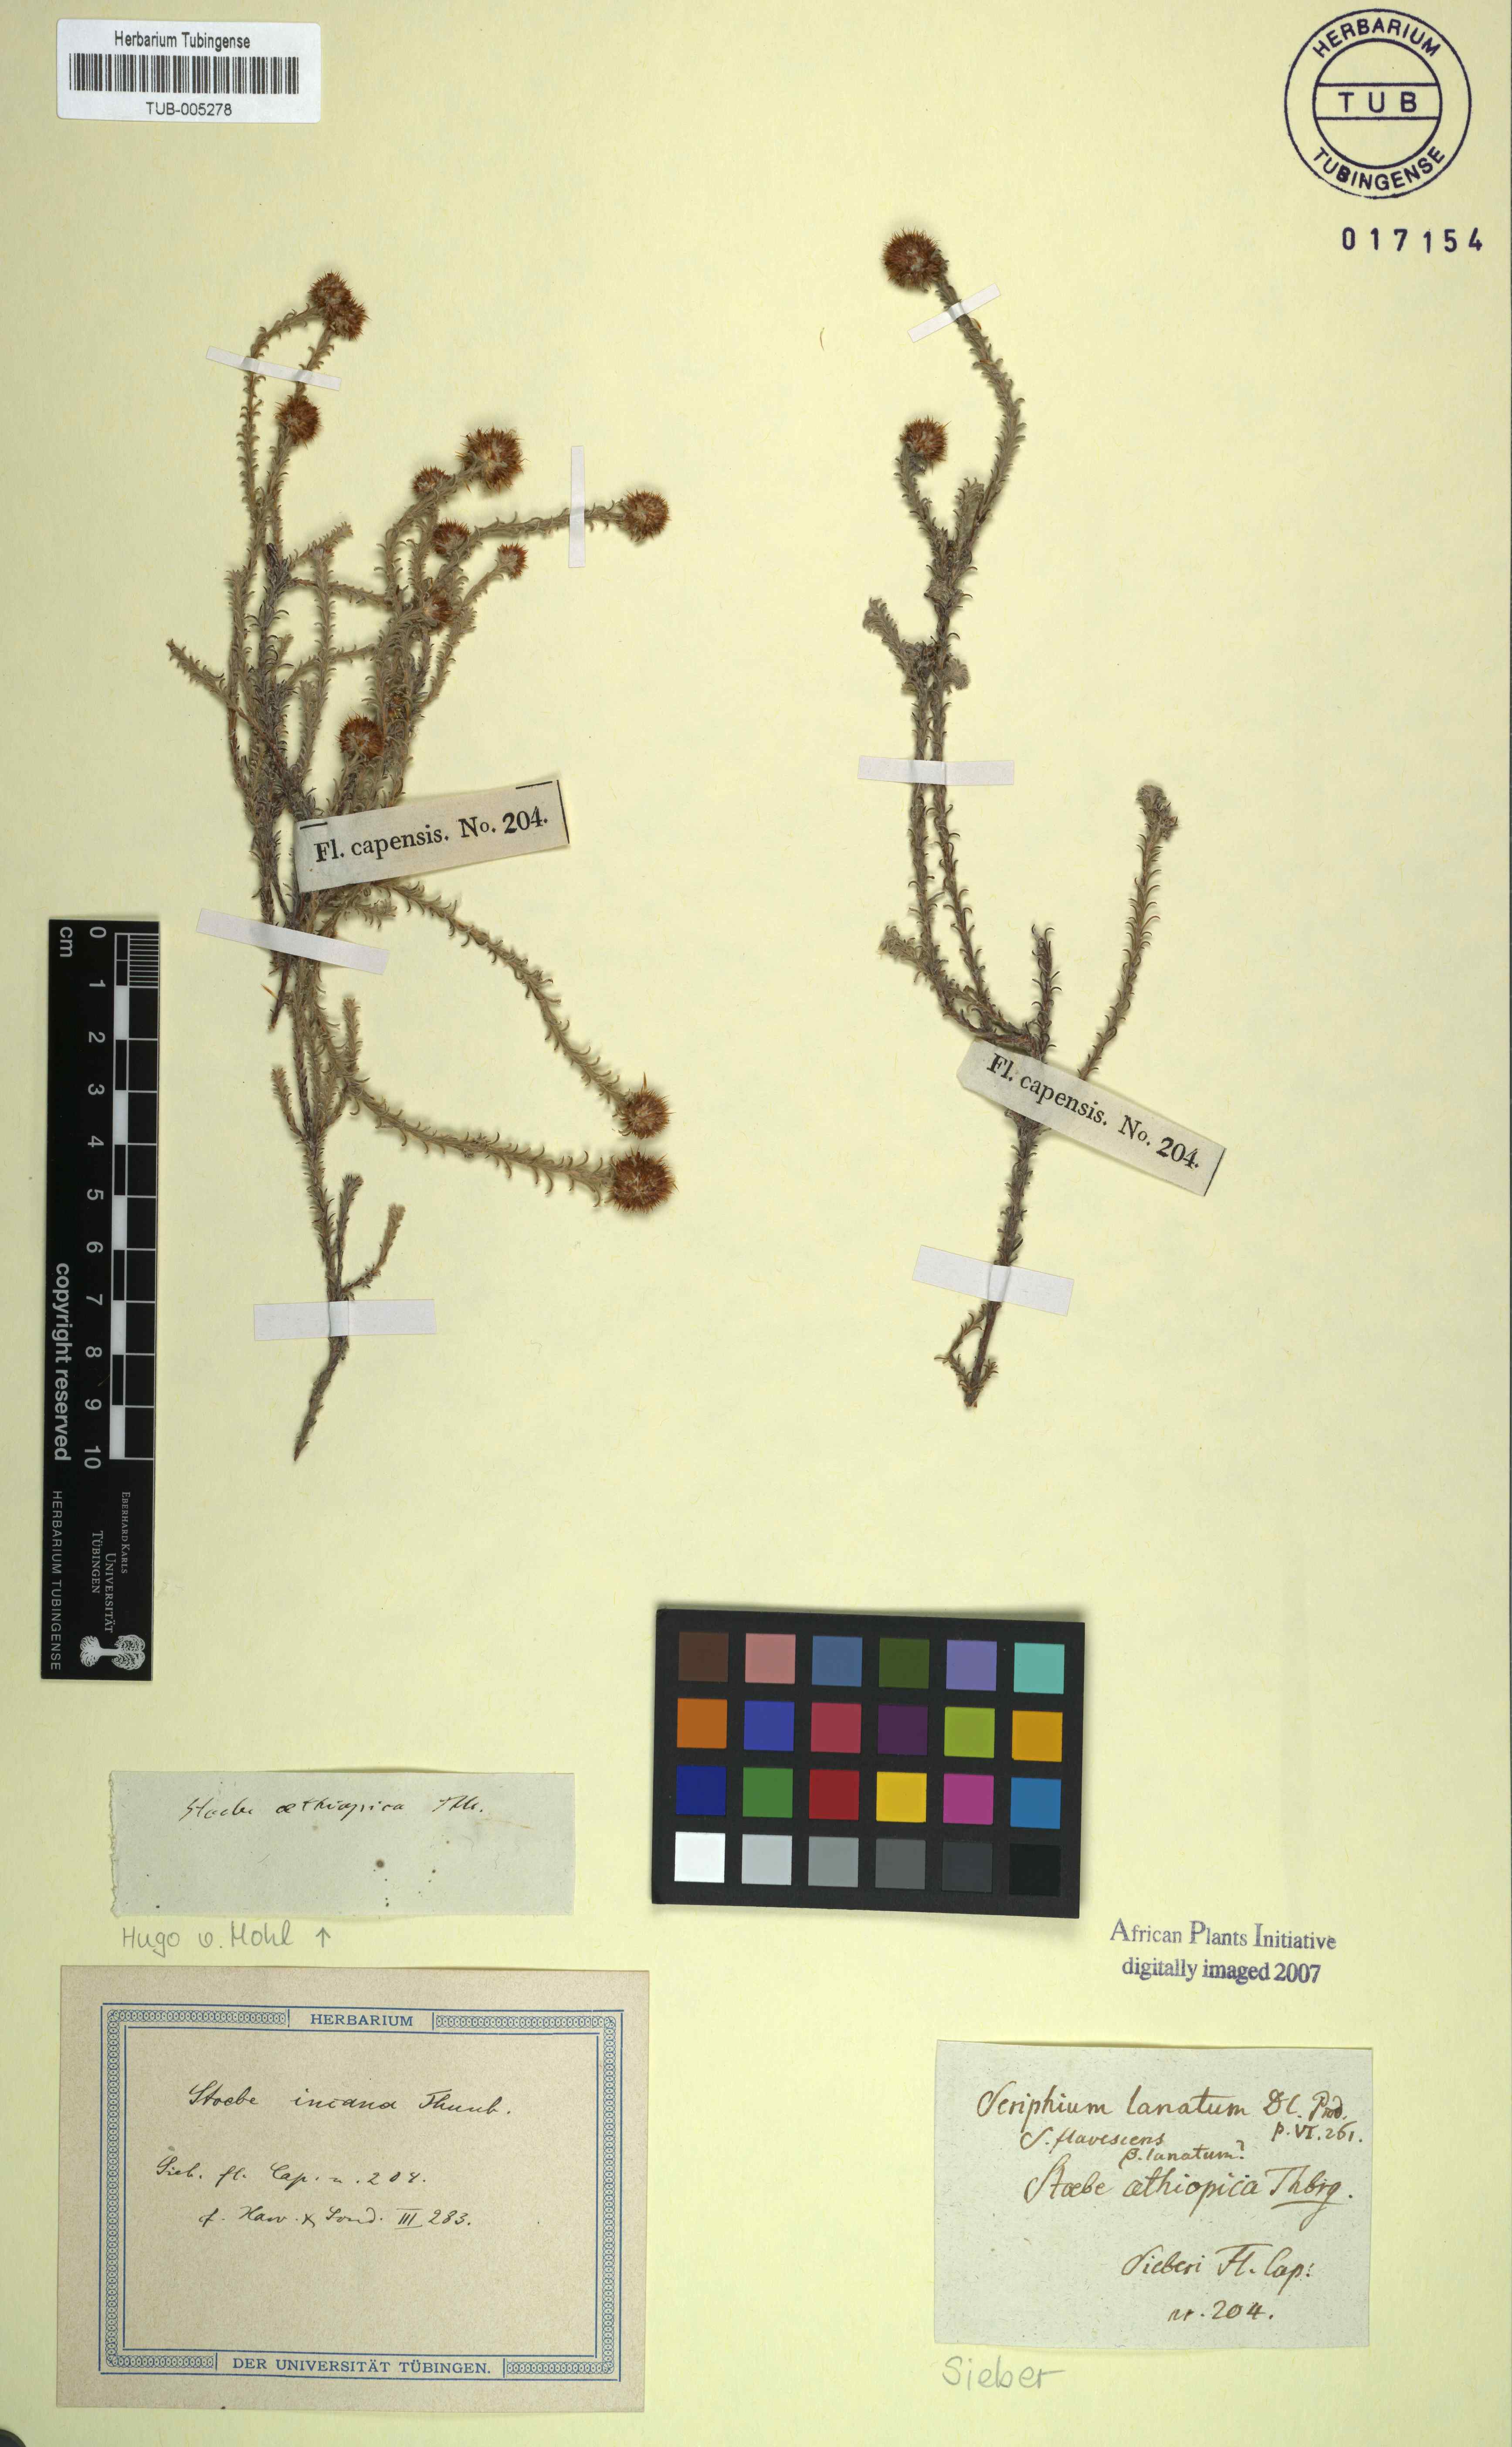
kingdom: Plantae
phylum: Tracheophyta
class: Magnoliopsida
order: Asterales
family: Asteraceae
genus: Seriphium
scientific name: Seriphium incanum
